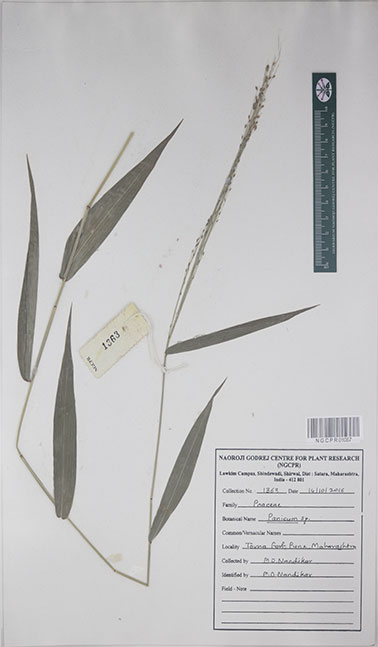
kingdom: Plantae
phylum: Tracheophyta
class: Liliopsida
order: Poales
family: Poaceae
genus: Panicum
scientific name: Panicum
